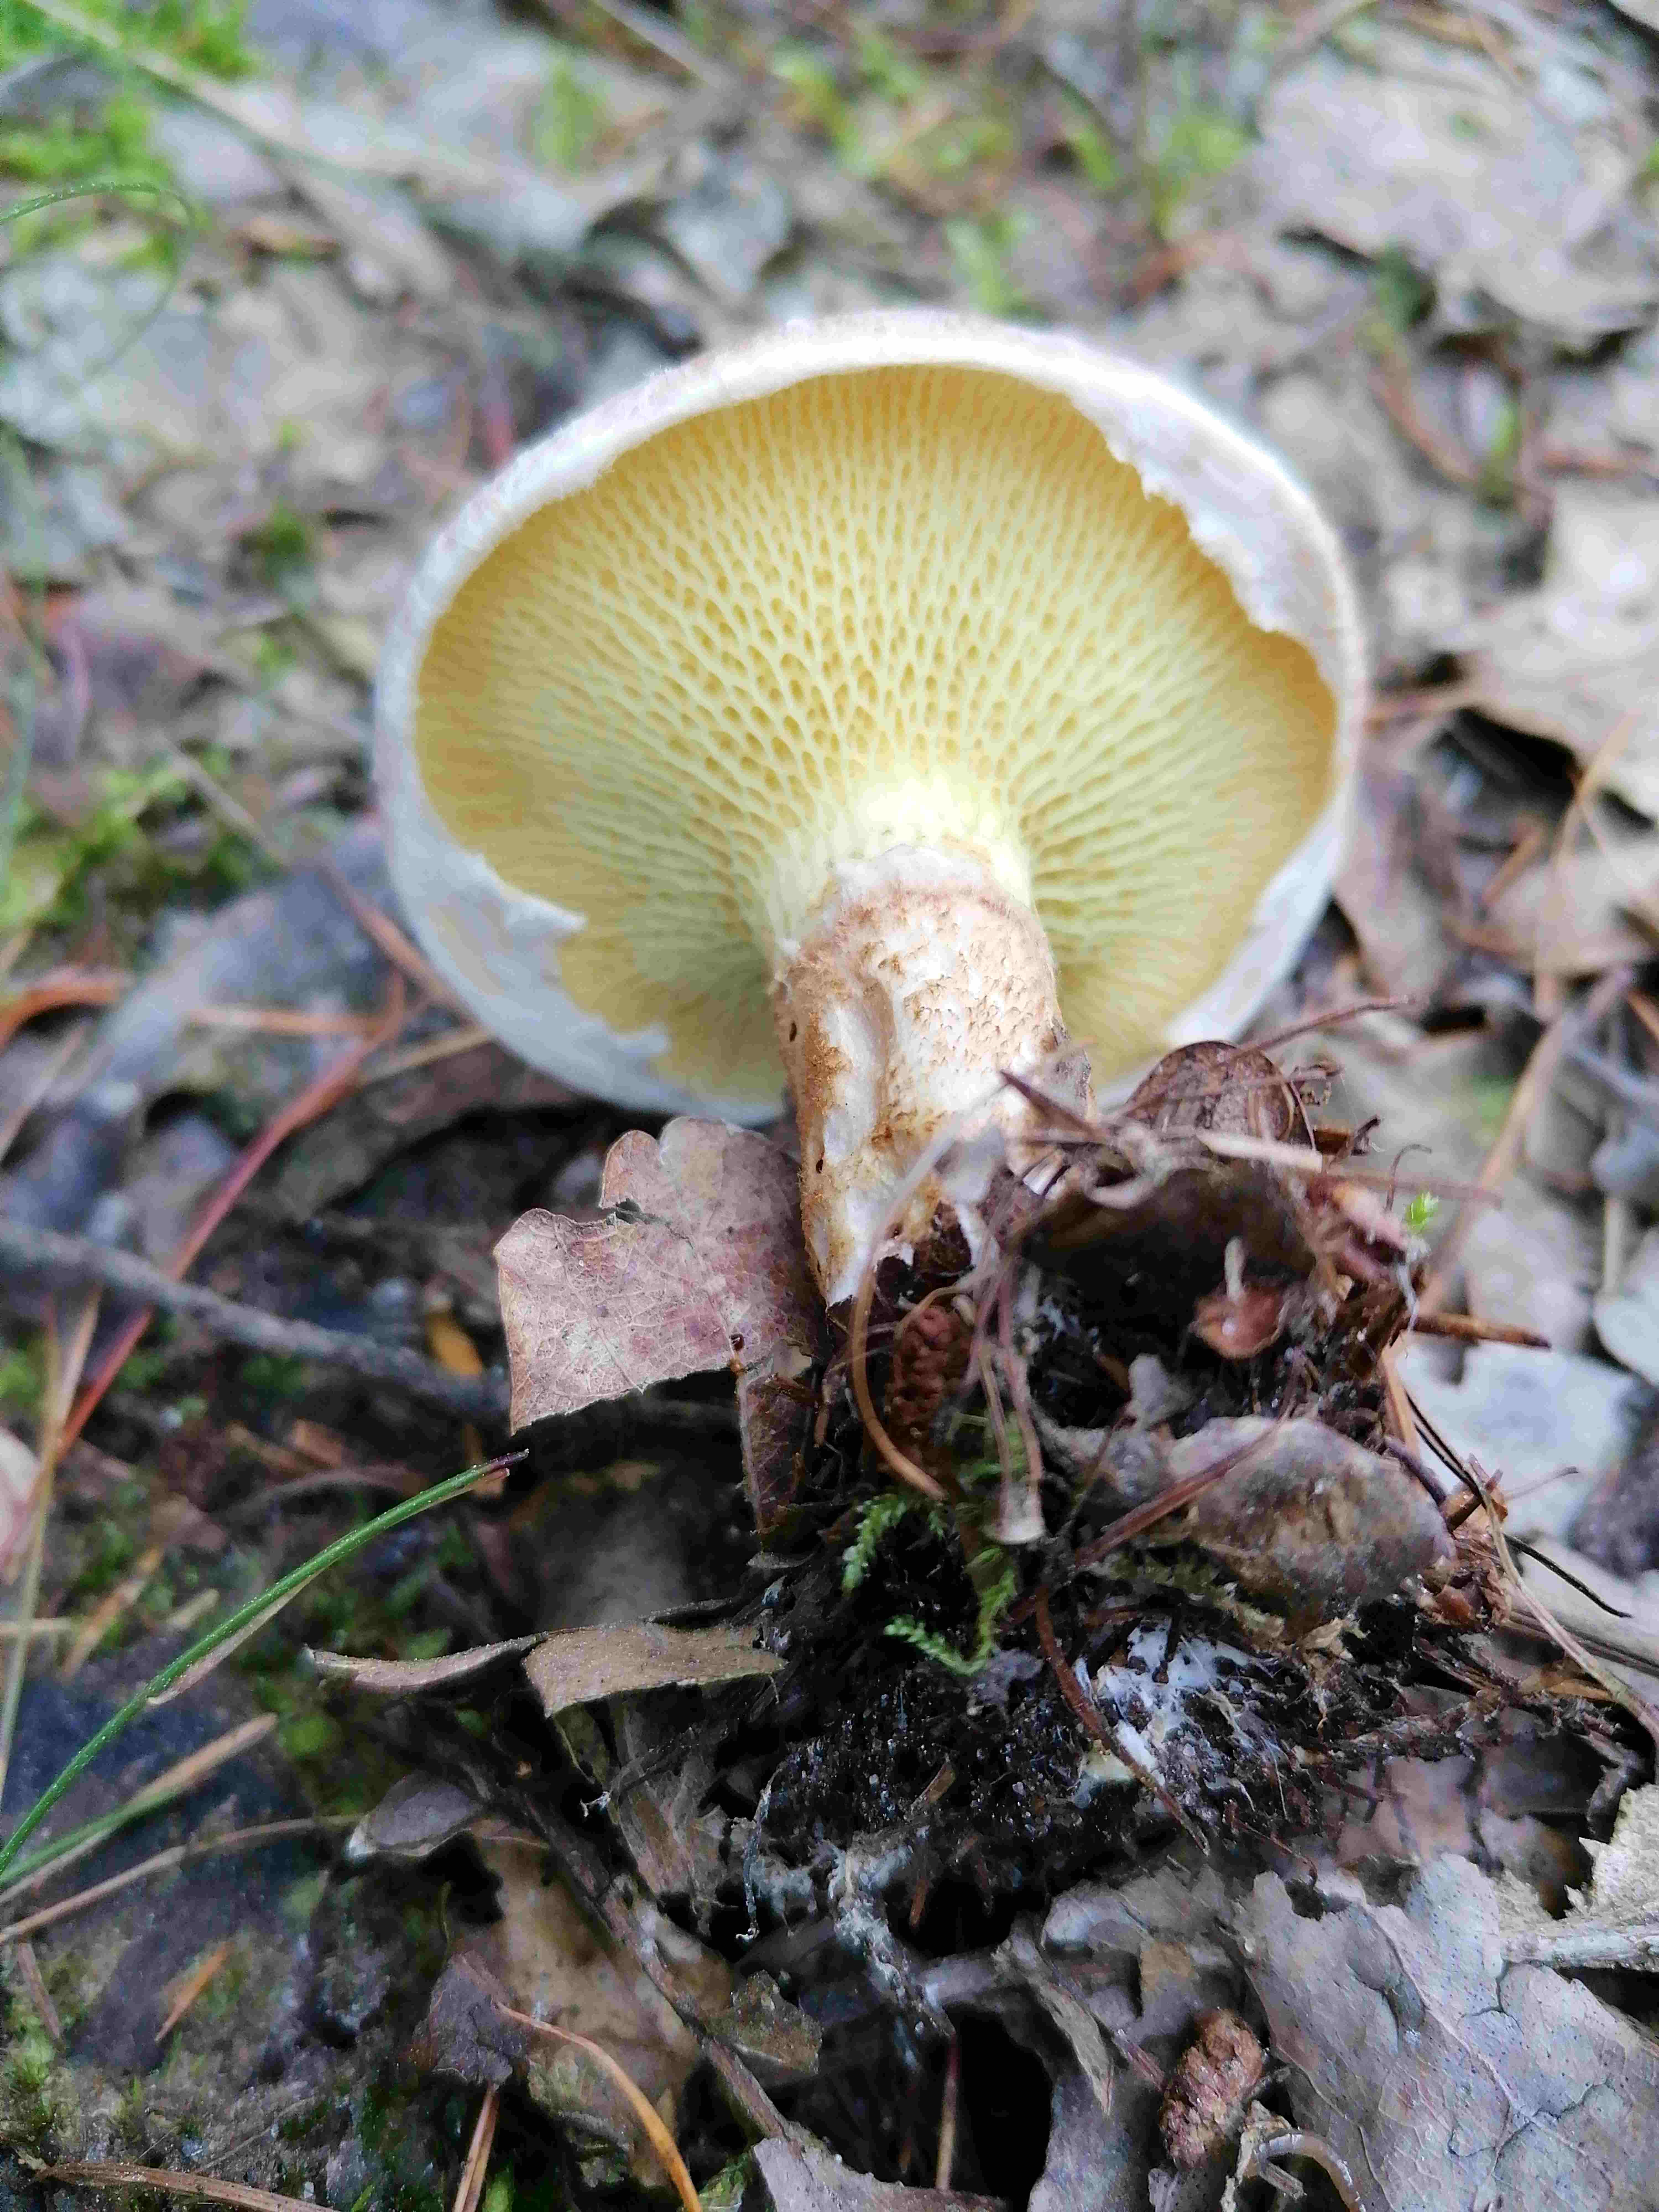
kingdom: Fungi
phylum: Basidiomycota
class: Agaricomycetes
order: Boletales
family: Suillaceae
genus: Suillus
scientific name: Suillus cavipes
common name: hulstokket slimrørhat
